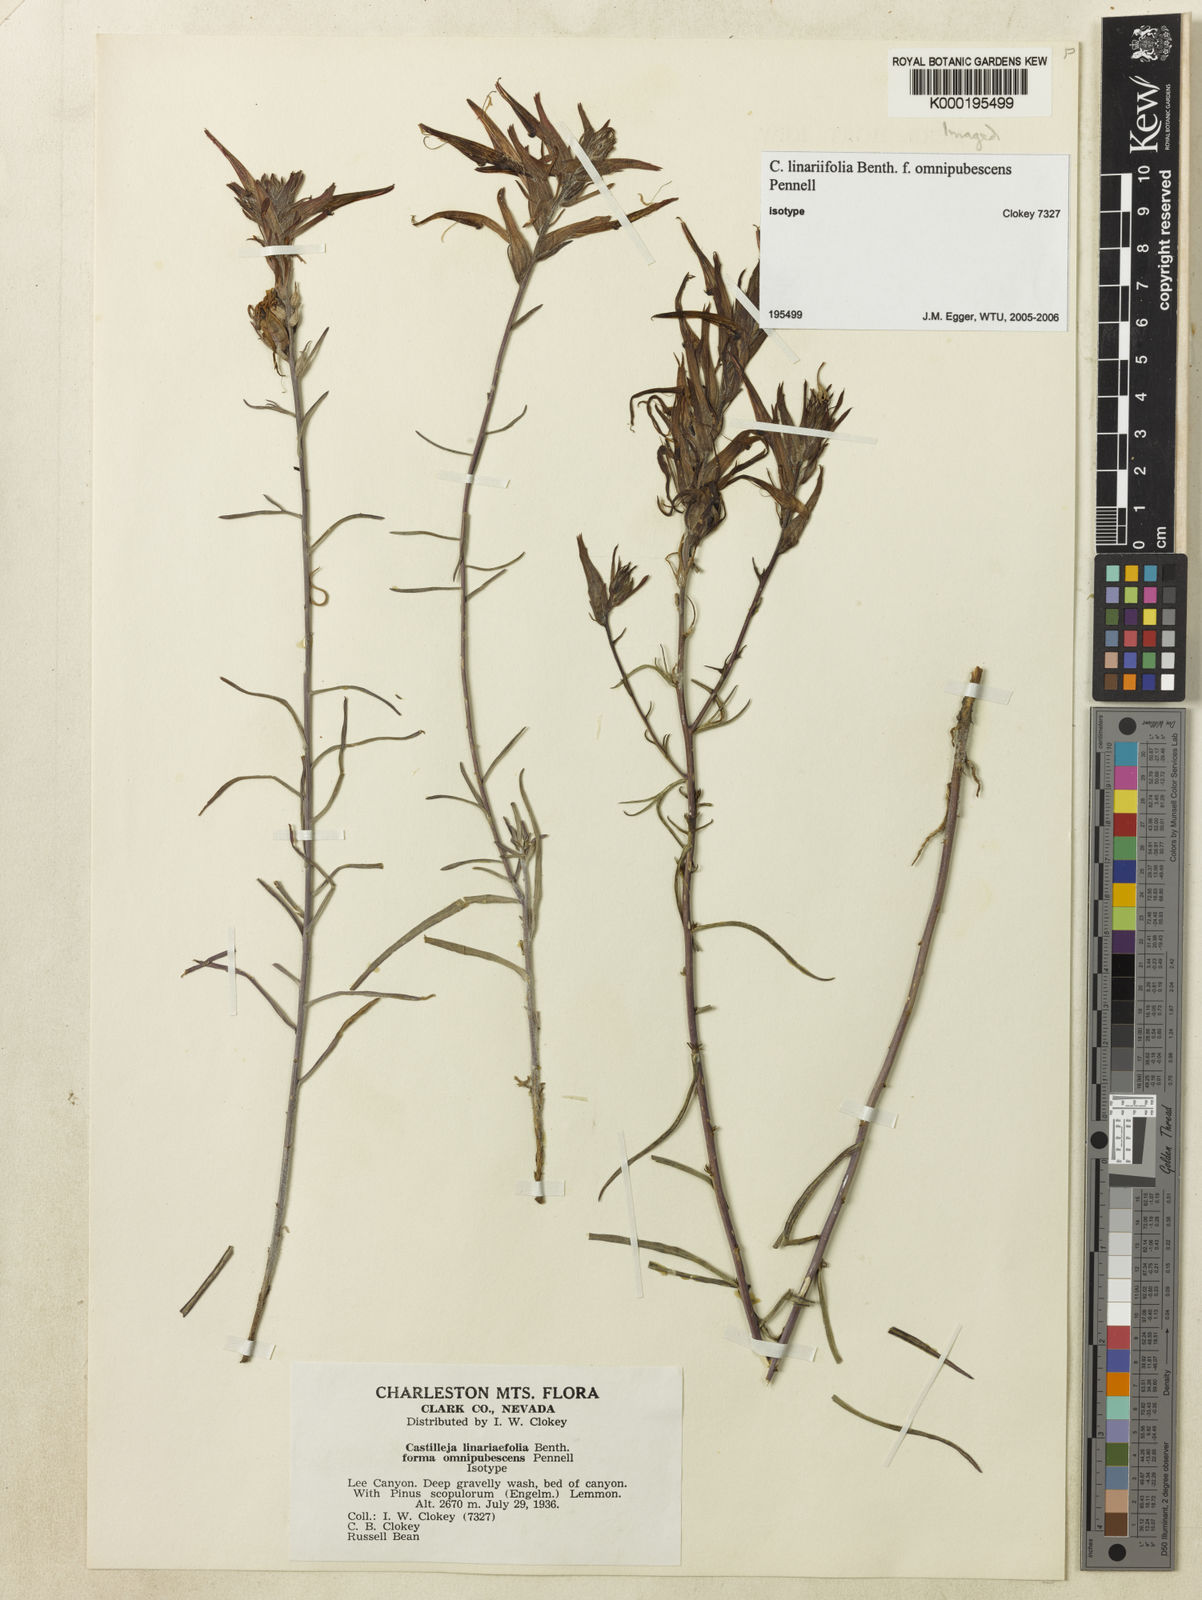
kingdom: Plantae
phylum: Tracheophyta
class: Magnoliopsida
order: Lamiales
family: Orobanchaceae
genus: Castilleja
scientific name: Castilleja
